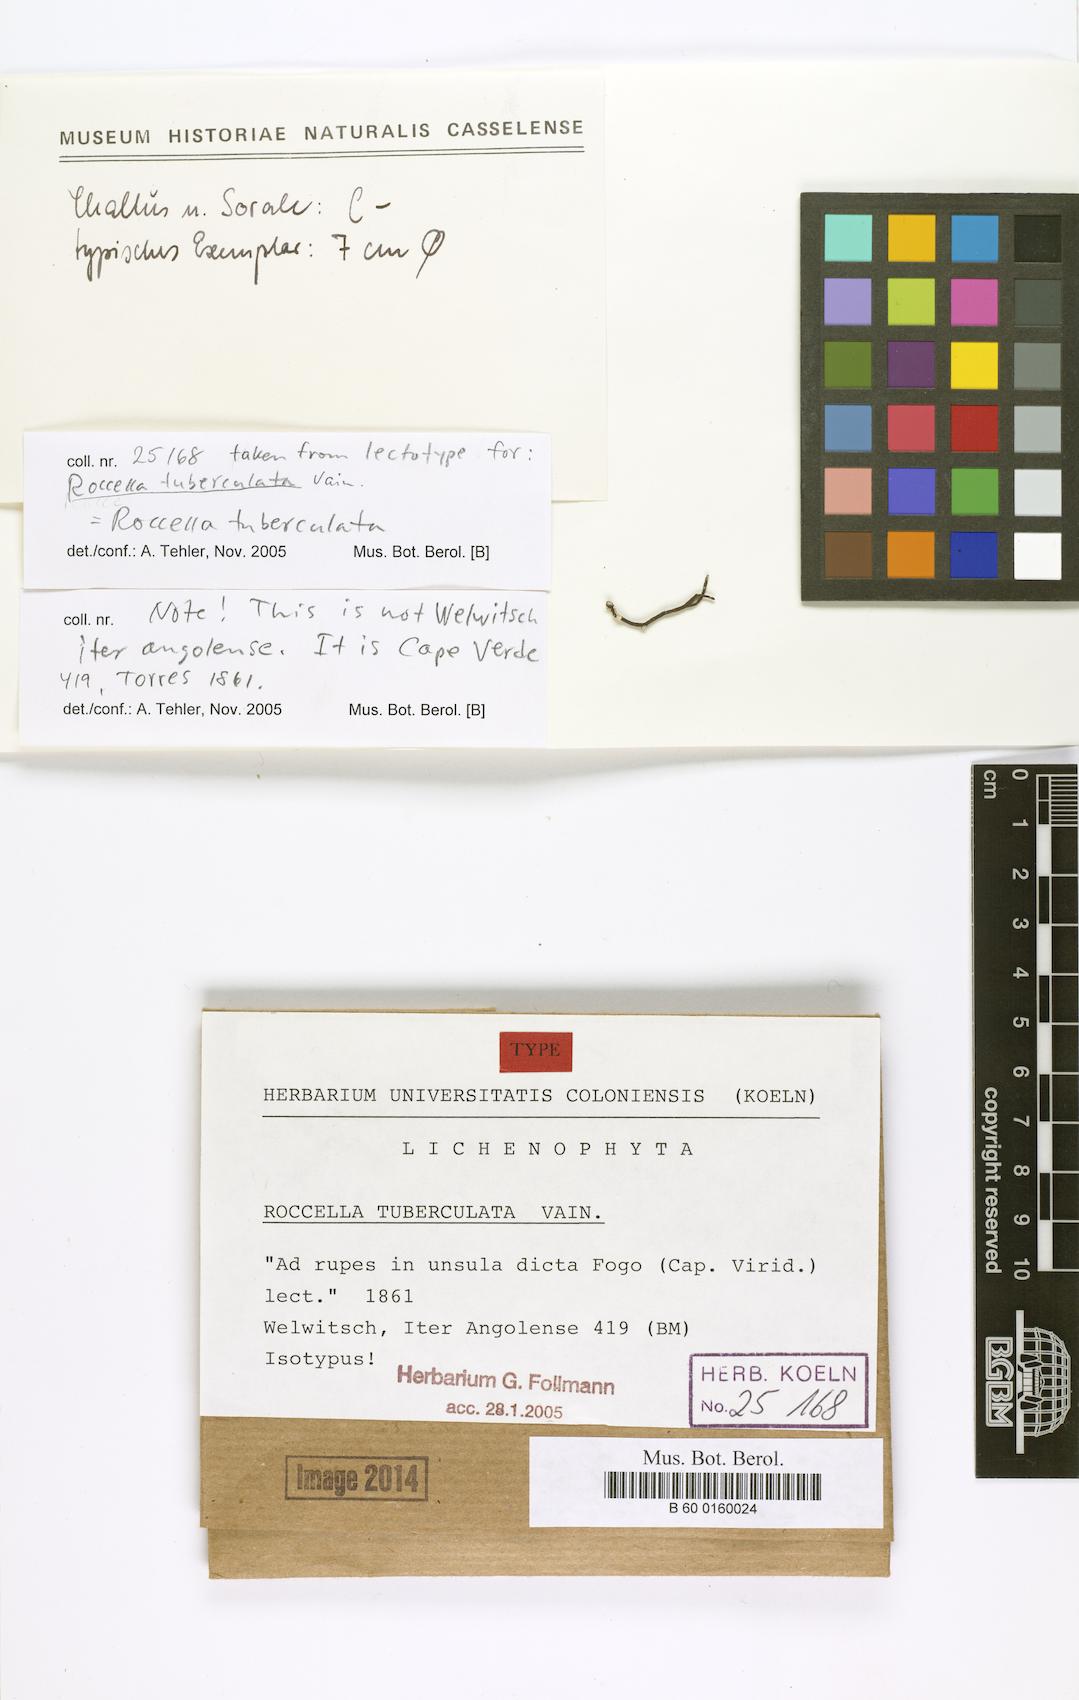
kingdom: Fungi
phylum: Ascomycota
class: Arthoniomycetes
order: Arthoniales
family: Roccellaceae
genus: Roccella
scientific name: Roccella tuberculata
